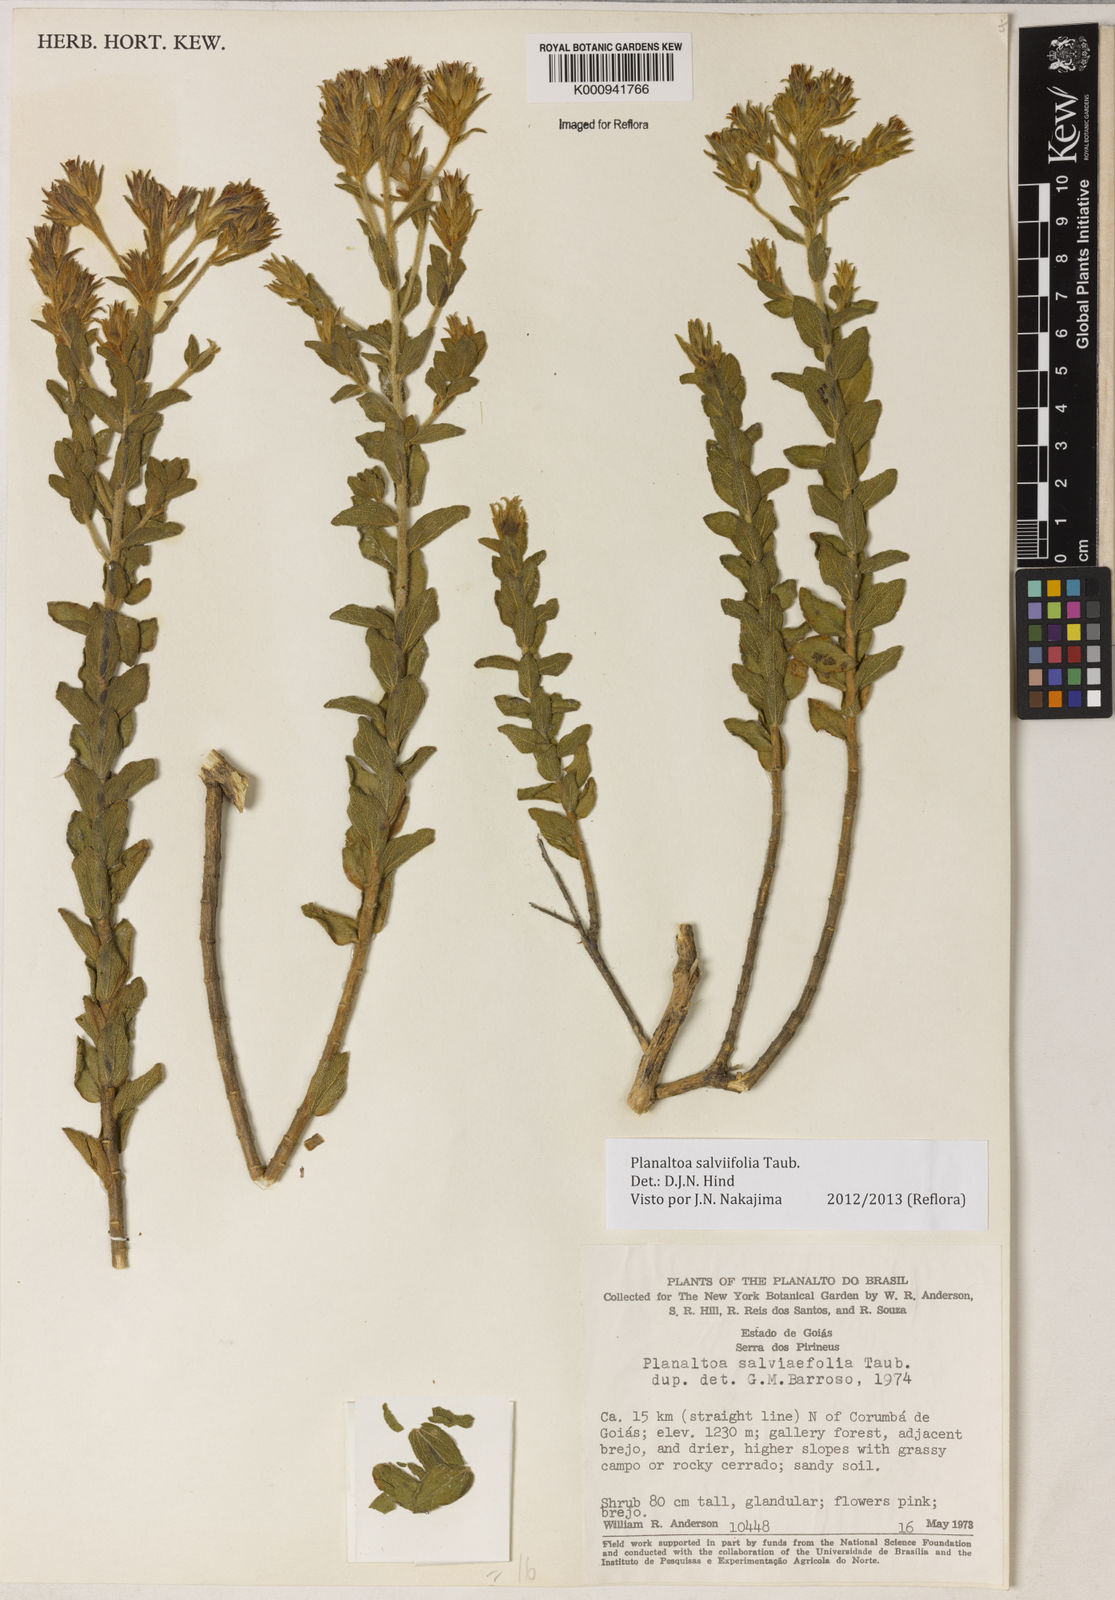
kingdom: Plantae
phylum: Tracheophyta
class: Magnoliopsida
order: Asterales
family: Asteraceae
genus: Planaltoa
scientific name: Planaltoa salviifolia
